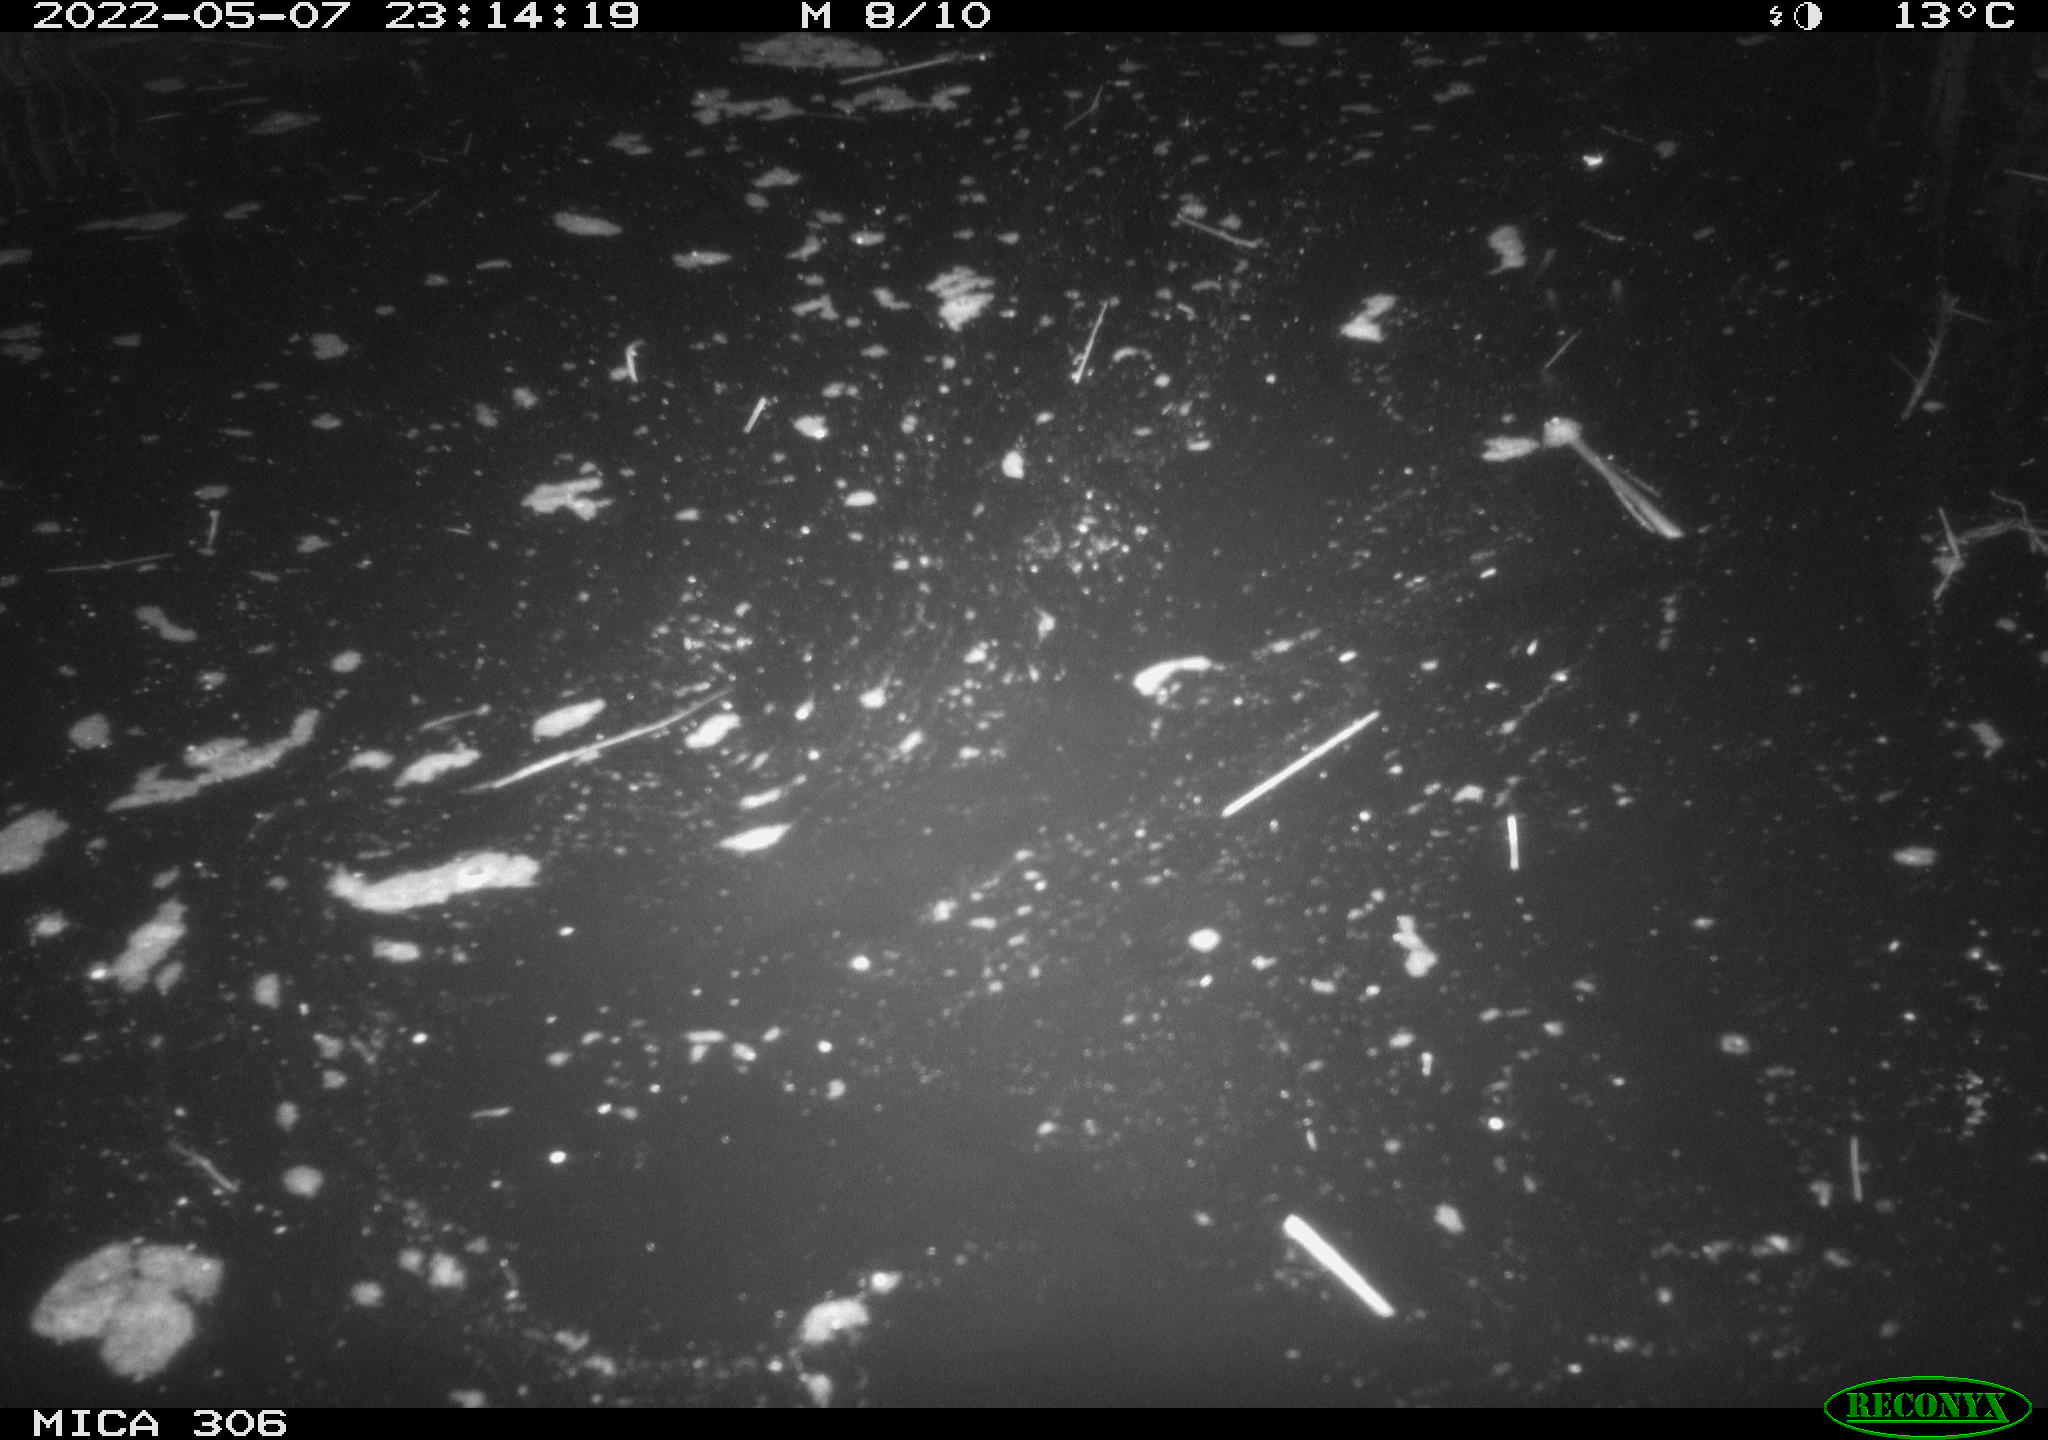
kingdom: Animalia
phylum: Chordata
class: Mammalia
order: Rodentia
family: Muridae
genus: Rattus
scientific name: Rattus norvegicus
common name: Brown rat
